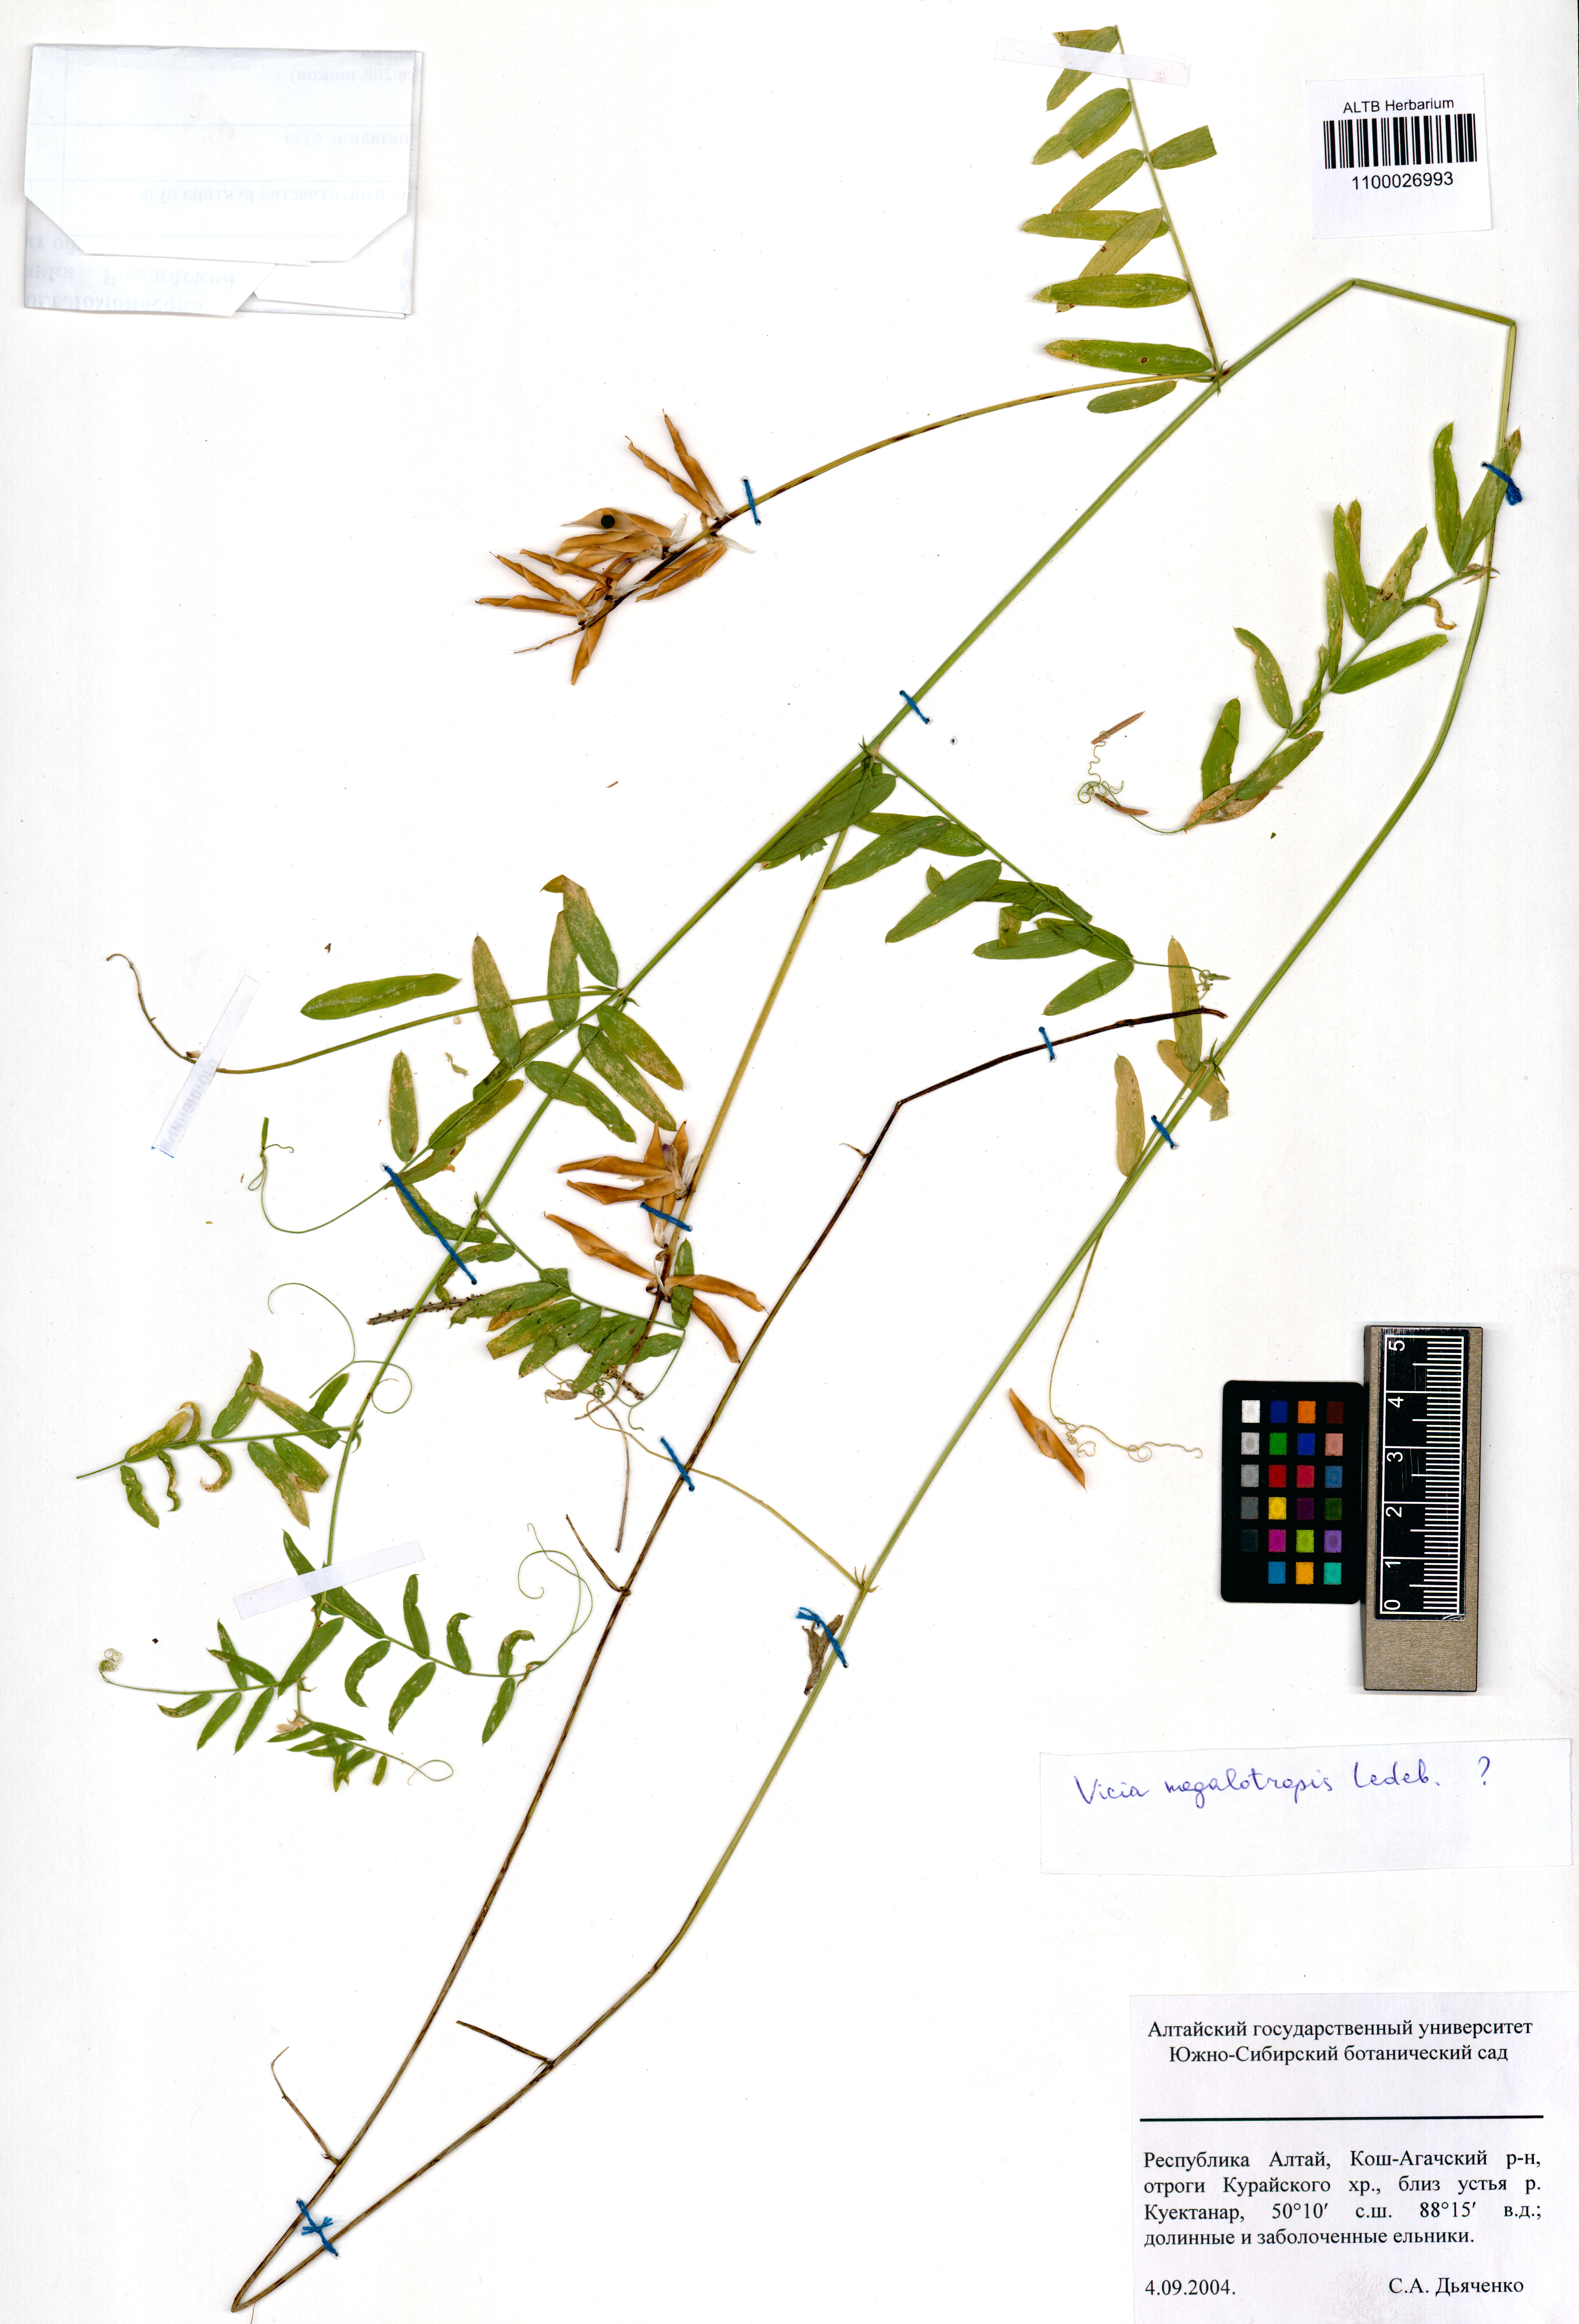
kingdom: Plantae
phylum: Tracheophyta
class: Magnoliopsida
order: Fabales
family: Fabaceae
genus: Vicia
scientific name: Vicia megalotropis
